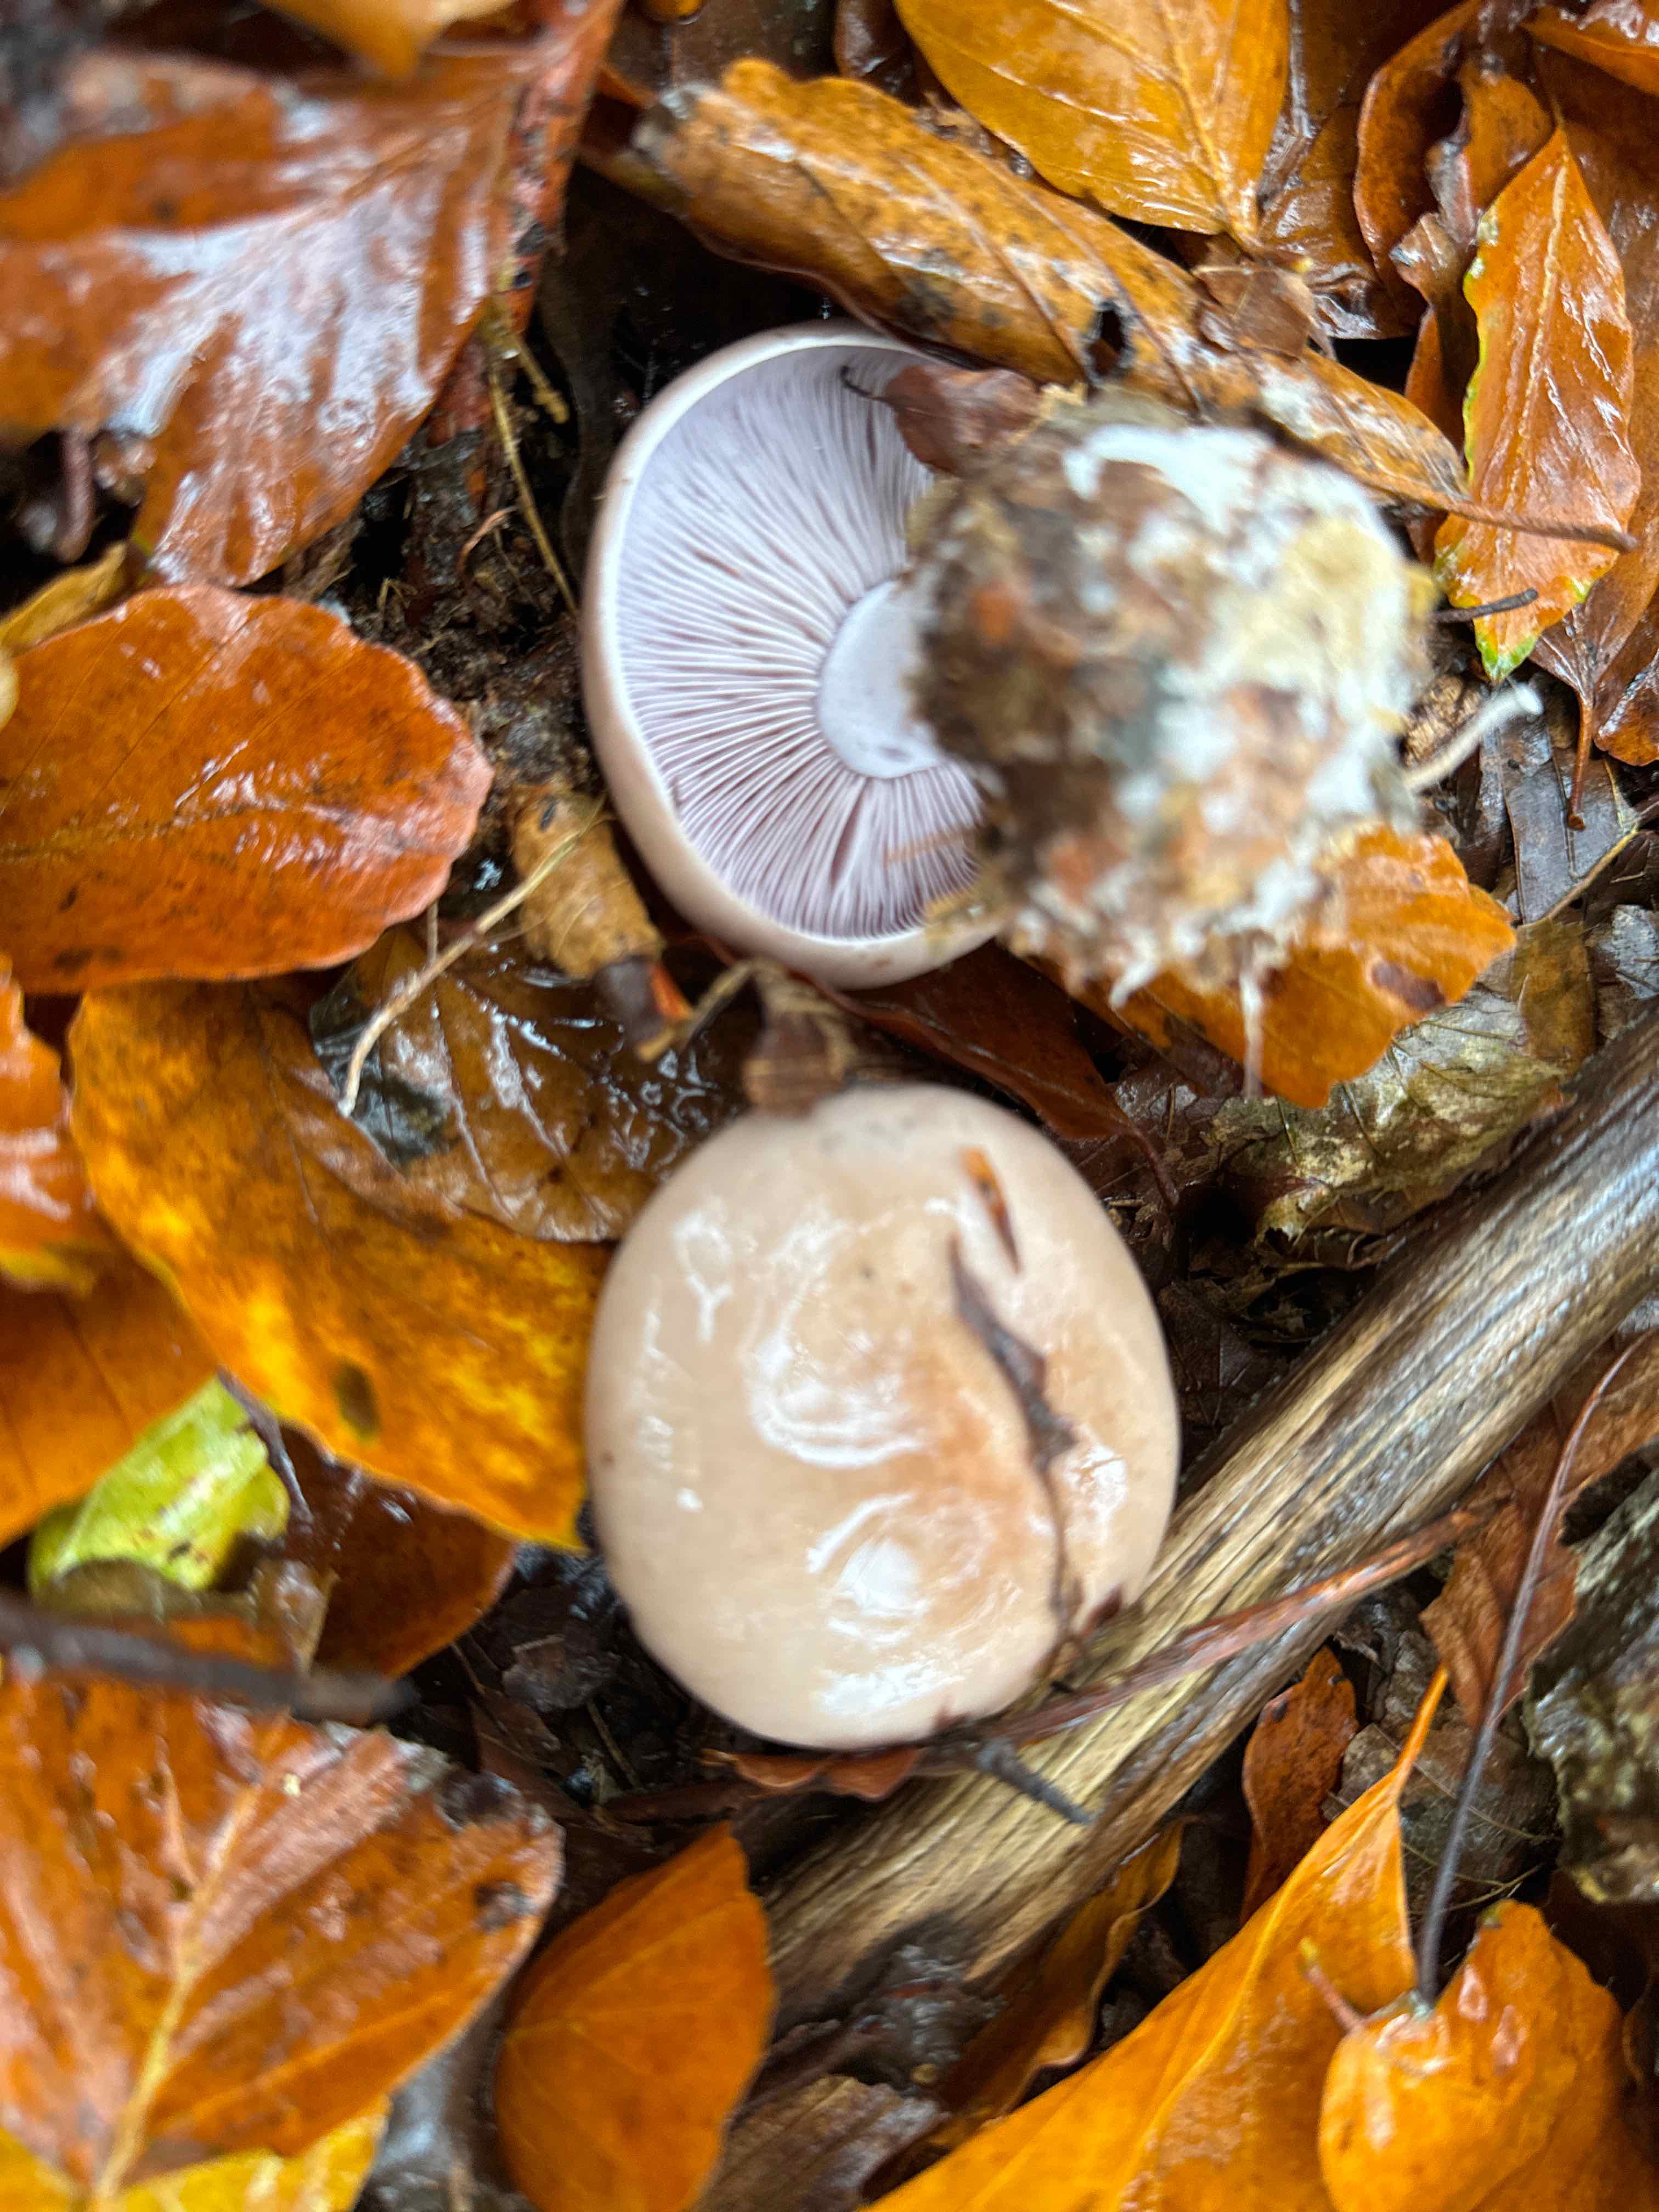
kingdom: Fungi
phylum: Basidiomycota
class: Agaricomycetes
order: Agaricales
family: Tricholomataceae
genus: Lepista
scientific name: Lepista nuda
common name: violet hekseringshat
